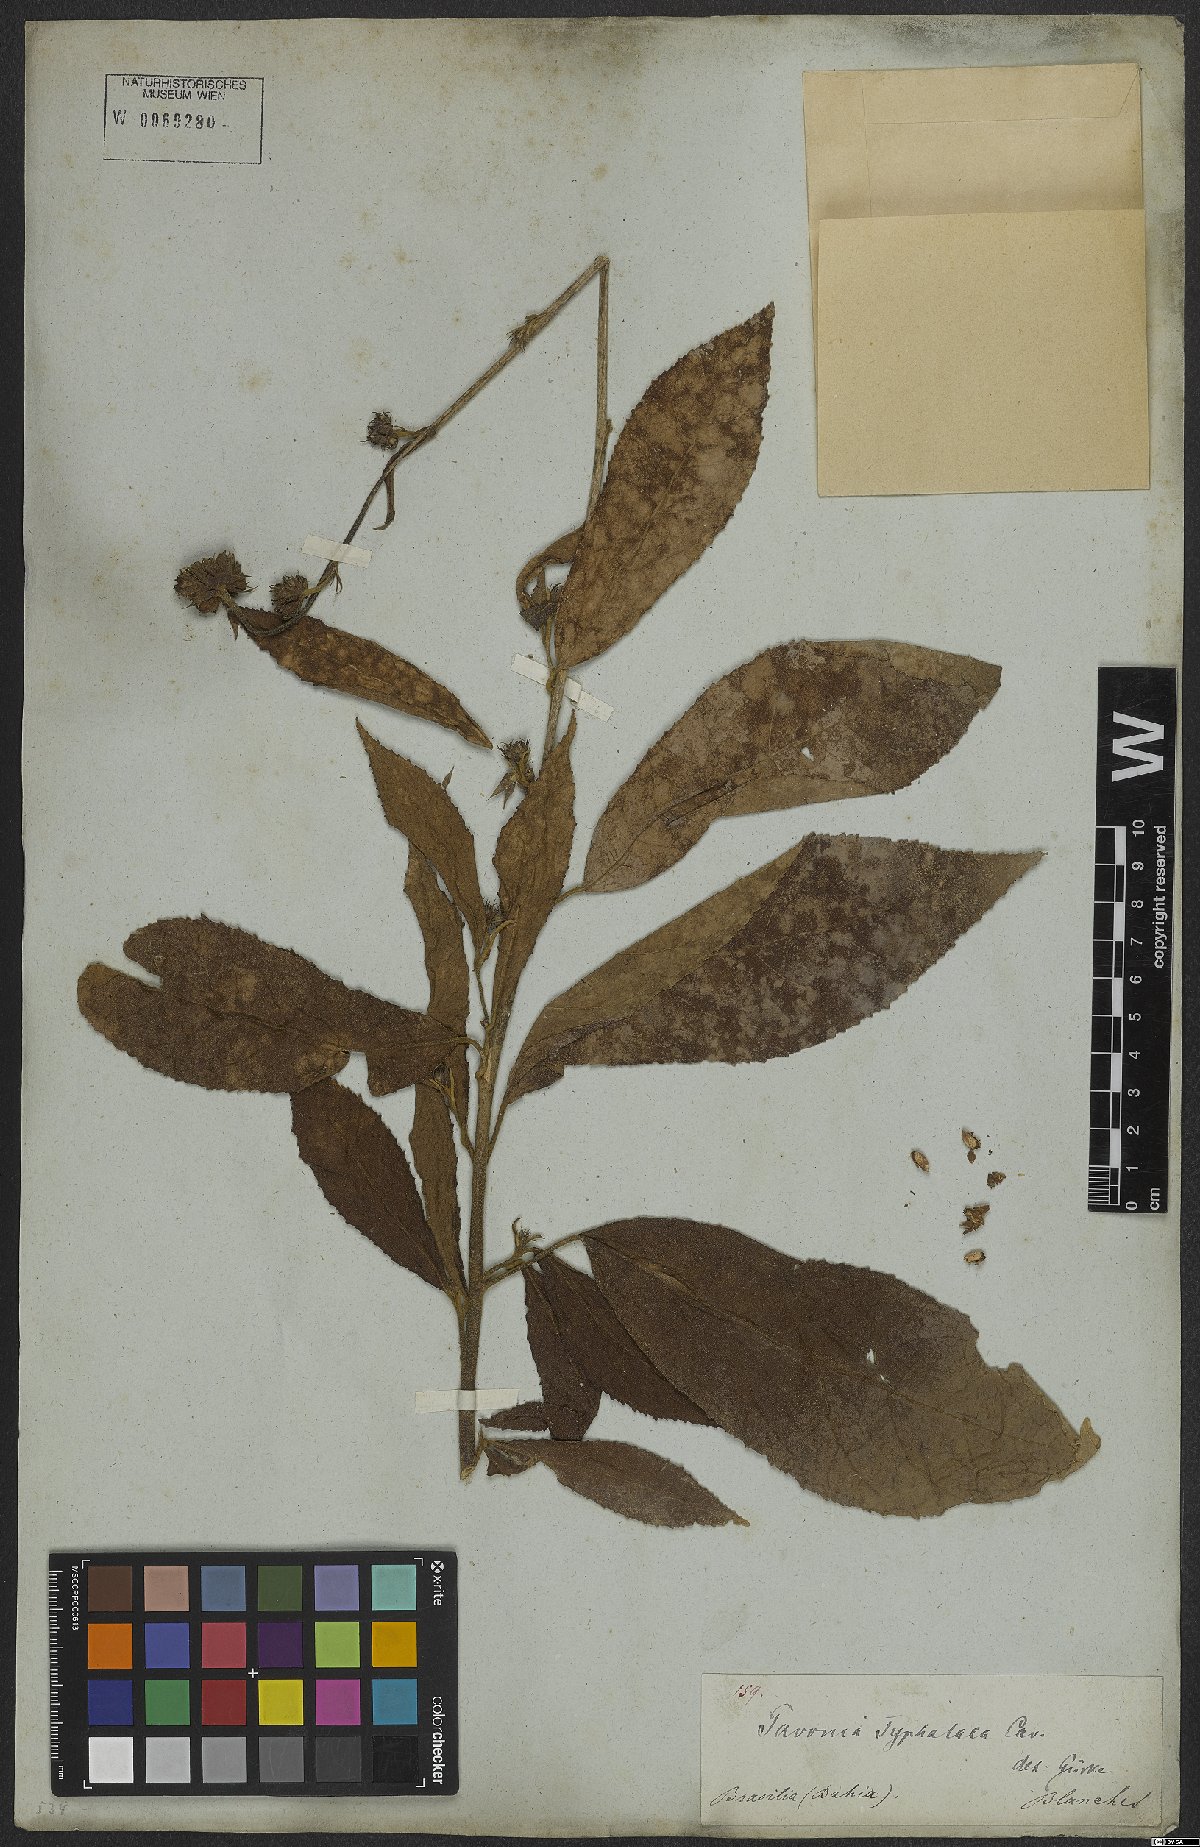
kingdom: Plantae
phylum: Tracheophyta
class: Magnoliopsida
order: Malvales
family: Malvaceae
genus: Pavonia
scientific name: Pavonia fruticosa
